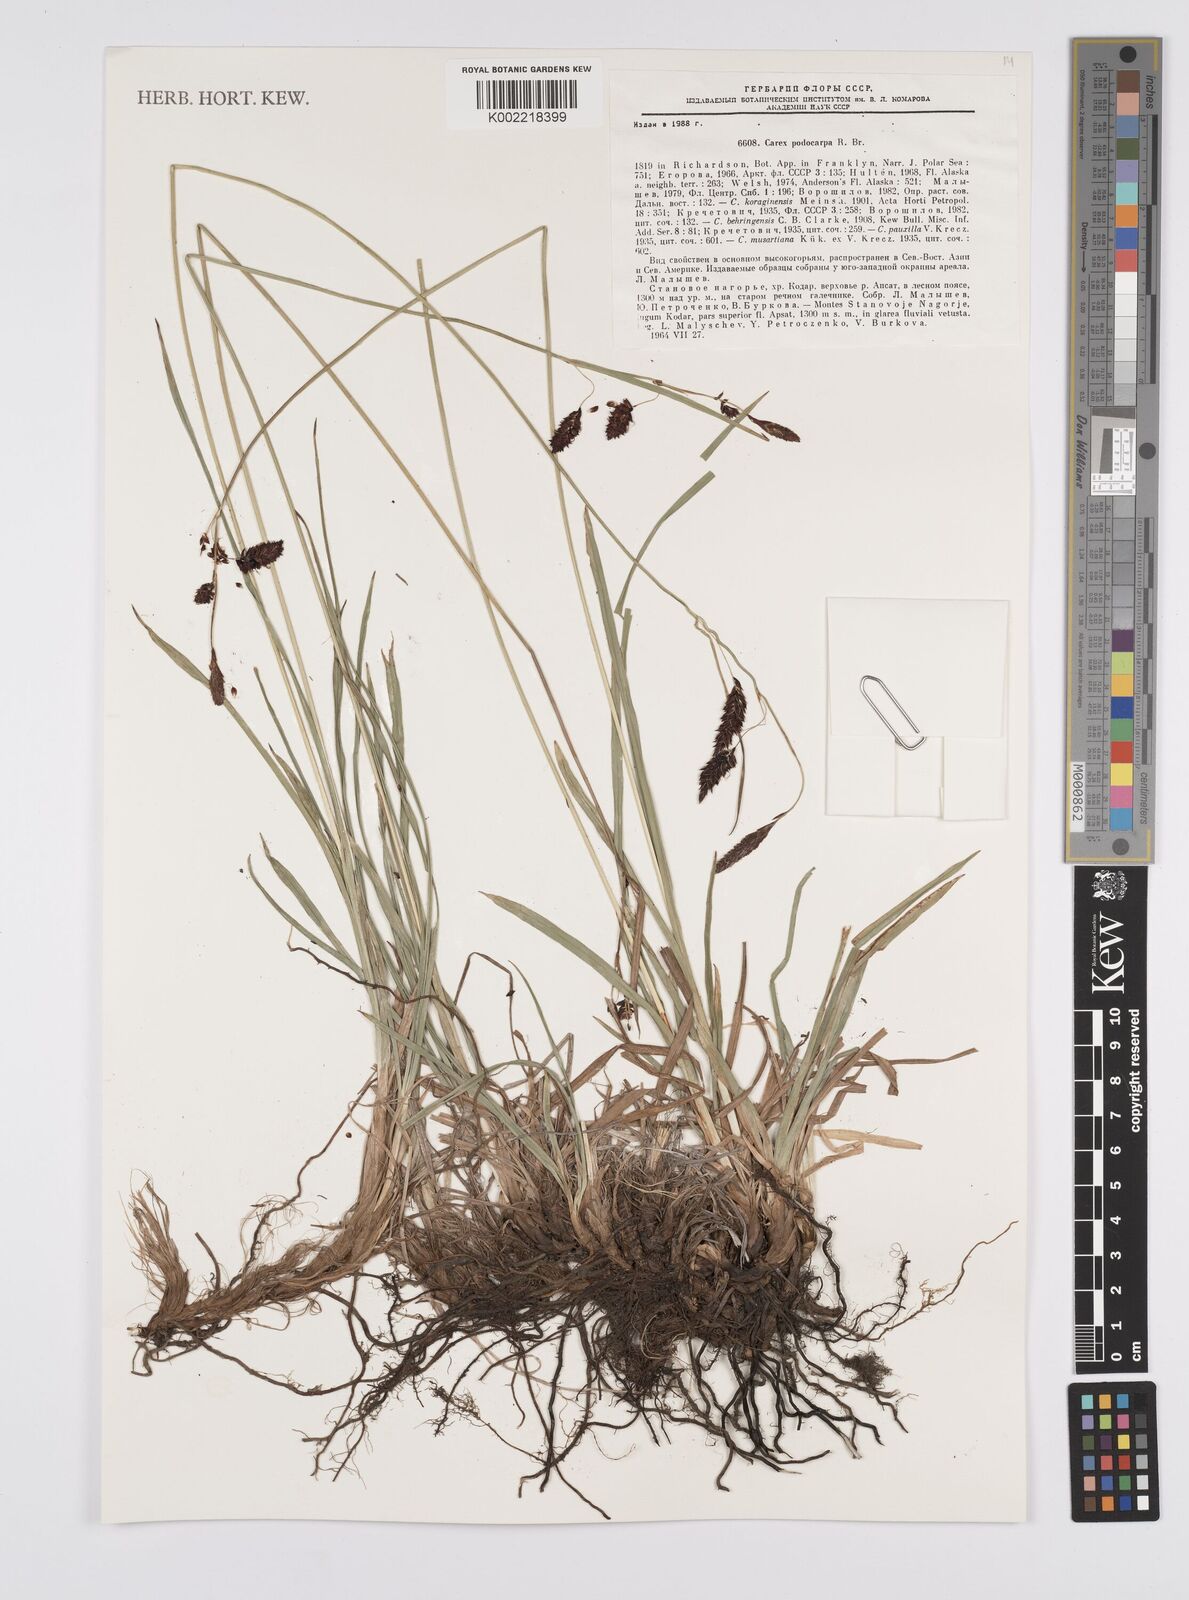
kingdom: Plantae
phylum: Tracheophyta
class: Liliopsida
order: Poales
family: Cyperaceae
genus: Carex
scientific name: Carex podocarpa
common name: Alpine sedge
